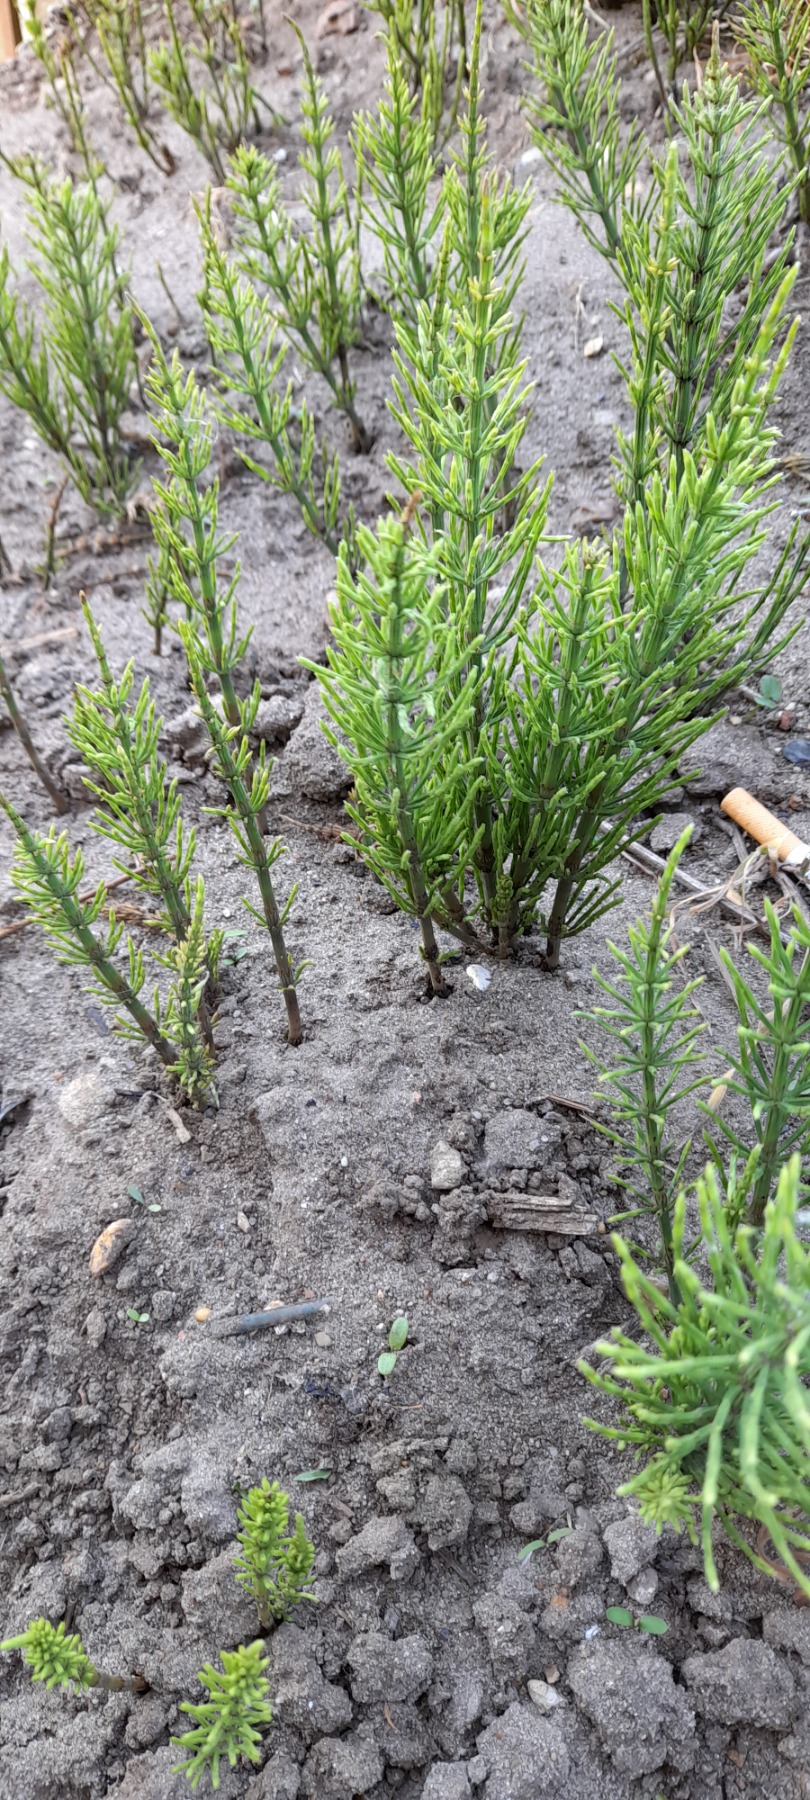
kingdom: Plantae
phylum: Tracheophyta
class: Polypodiopsida
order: Equisetales
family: Equisetaceae
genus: Equisetum
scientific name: Equisetum arvense
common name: Ager-padderok
